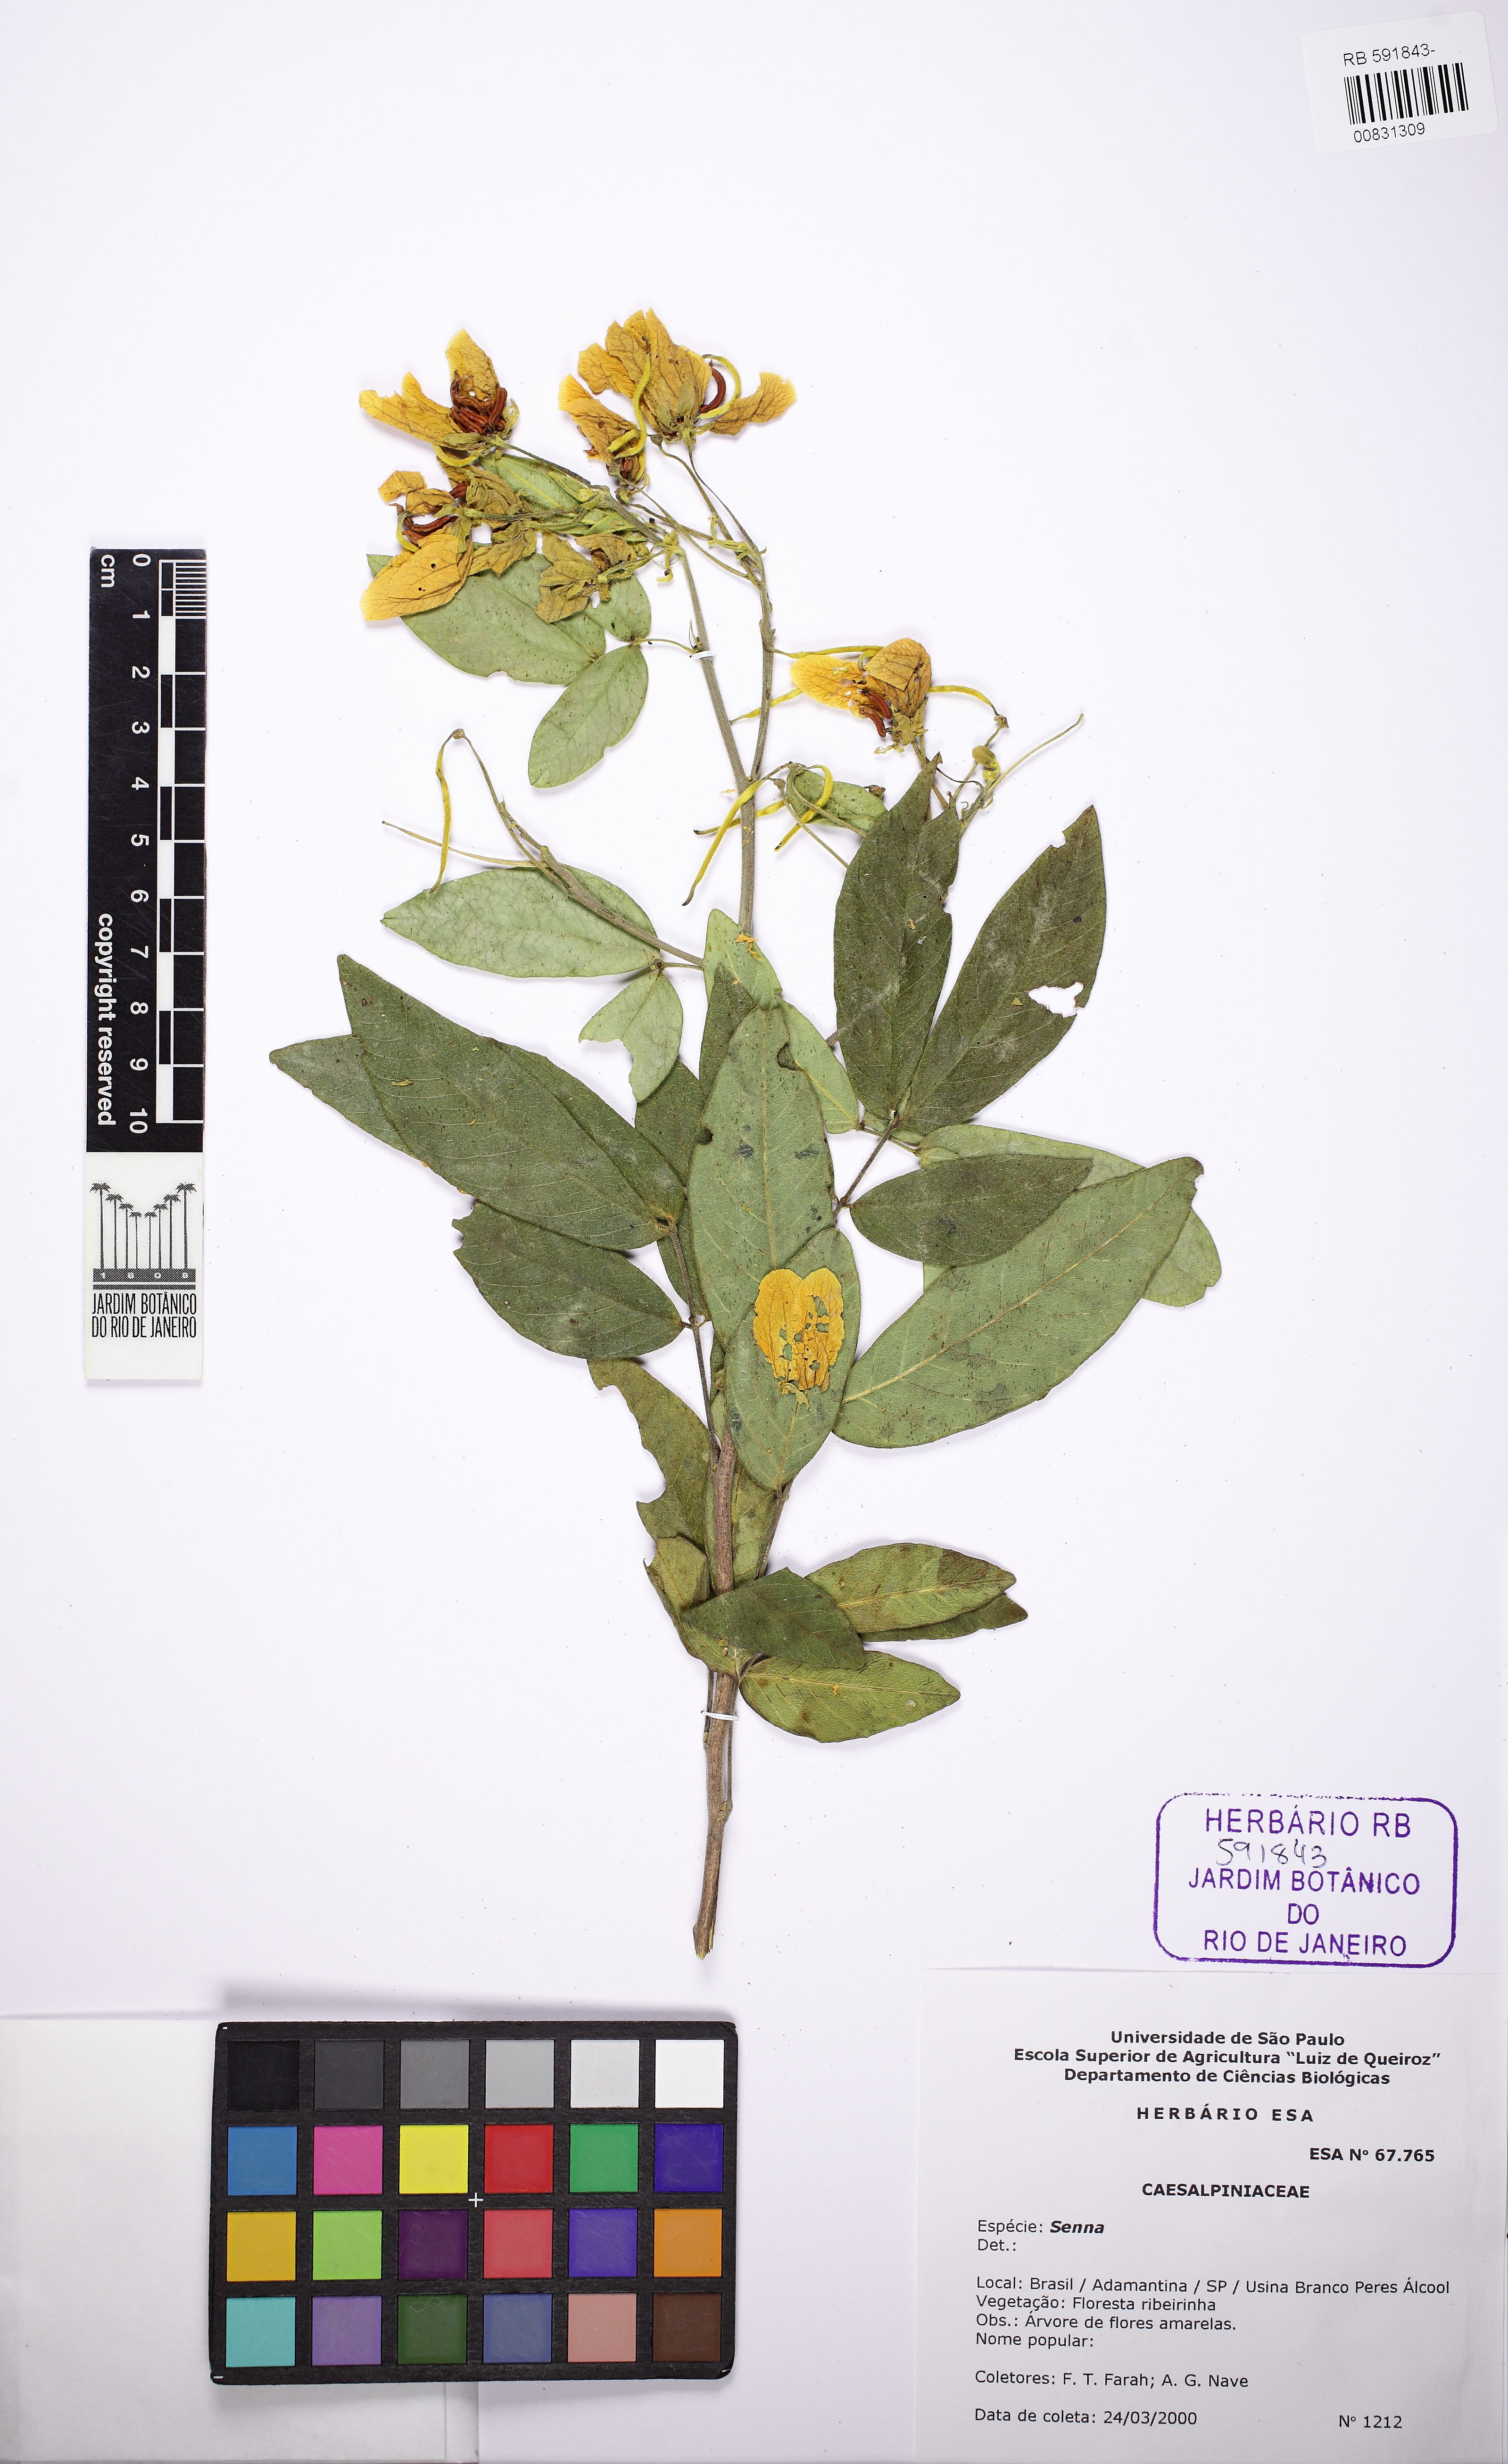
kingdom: Plantae
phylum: Tracheophyta
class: Magnoliopsida
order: Fabales
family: Fabaceae
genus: Senna
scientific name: Senna macranthera
